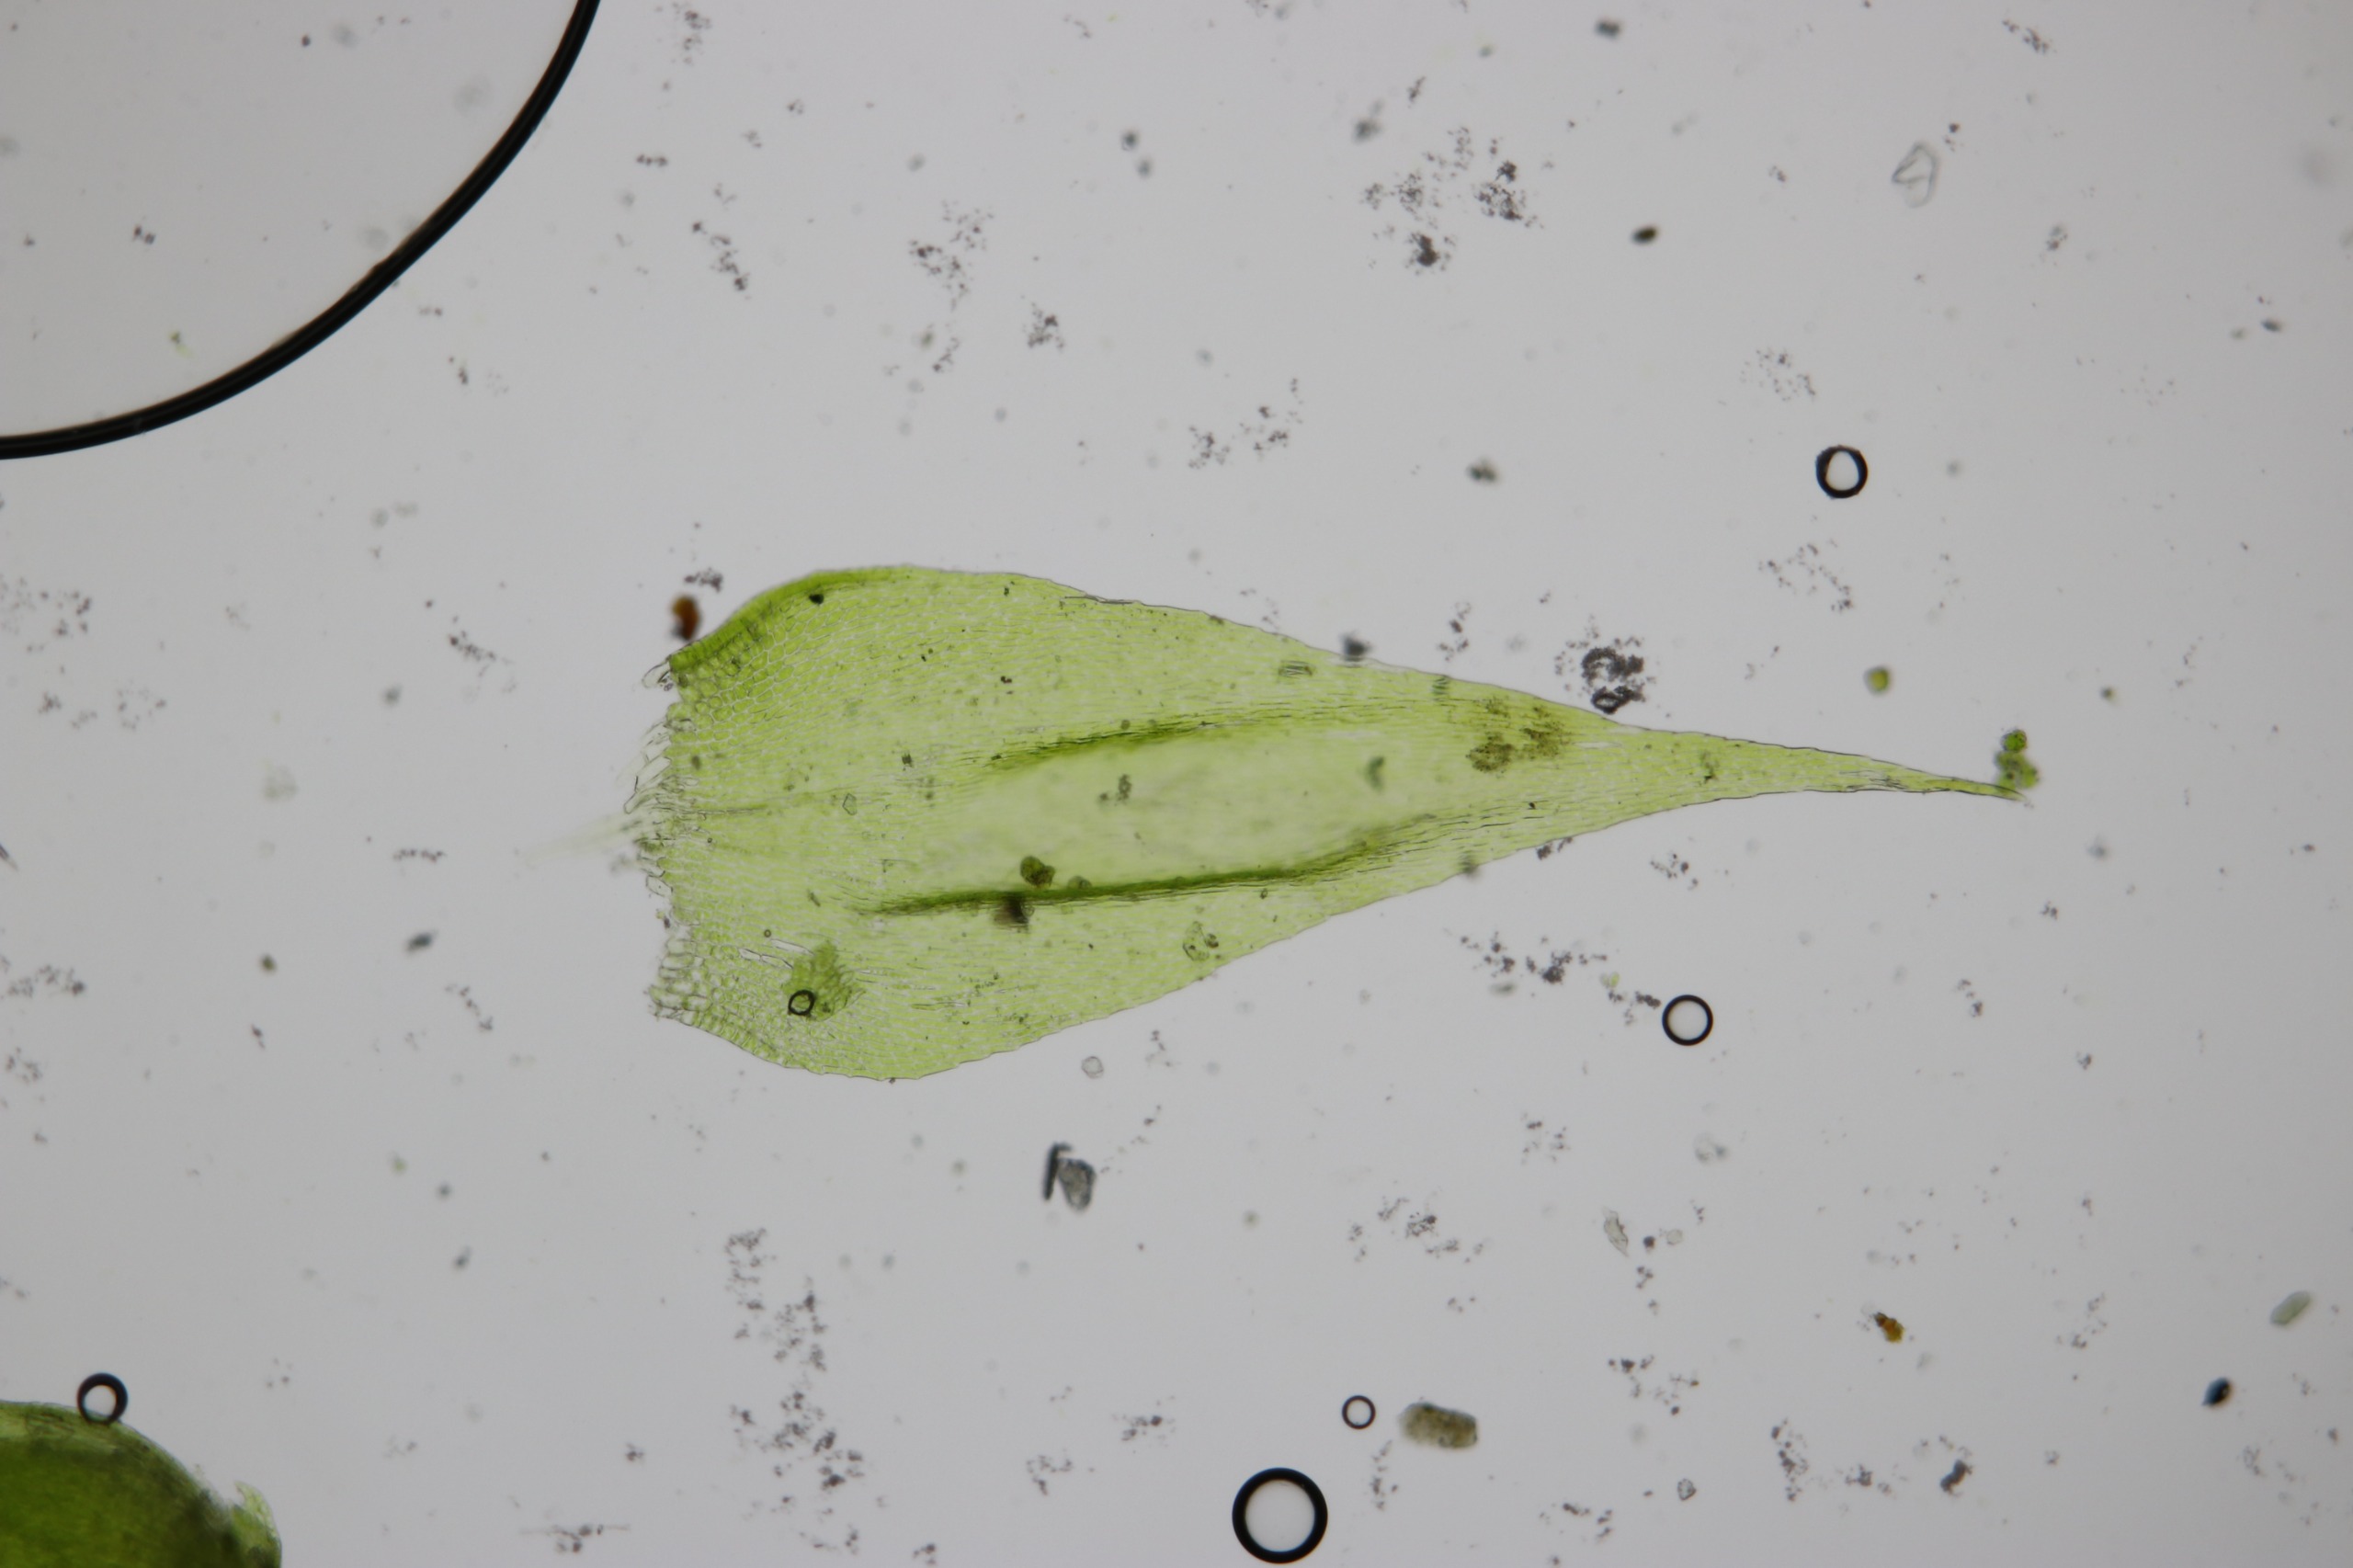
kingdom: Plantae
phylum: Bryophyta
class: Bryopsida
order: Hypnales
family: Pylaisiaceae
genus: Pylaisia
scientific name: Pylaisia polyantha
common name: Mangefrugtet aspemos
